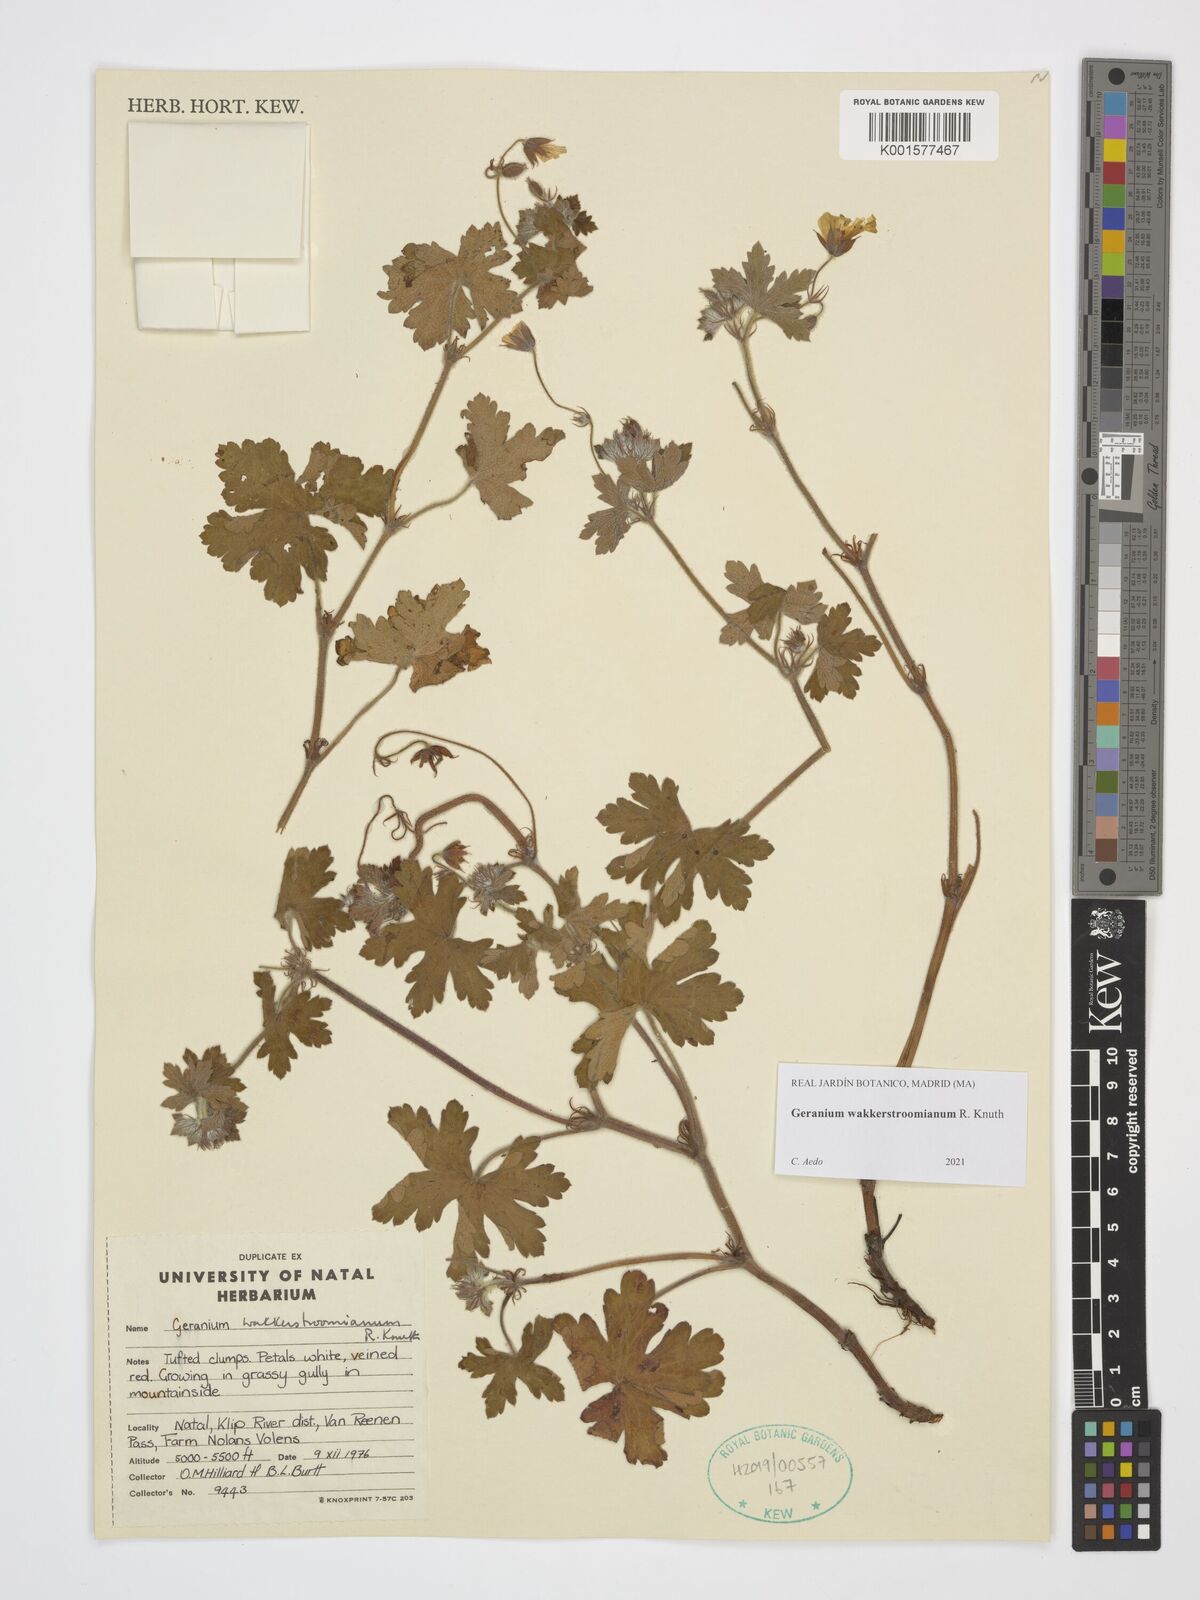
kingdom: Plantae
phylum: Tracheophyta
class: Magnoliopsida
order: Geraniales
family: Geraniaceae
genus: Geranium
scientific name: Geranium wakkerstroomianum
